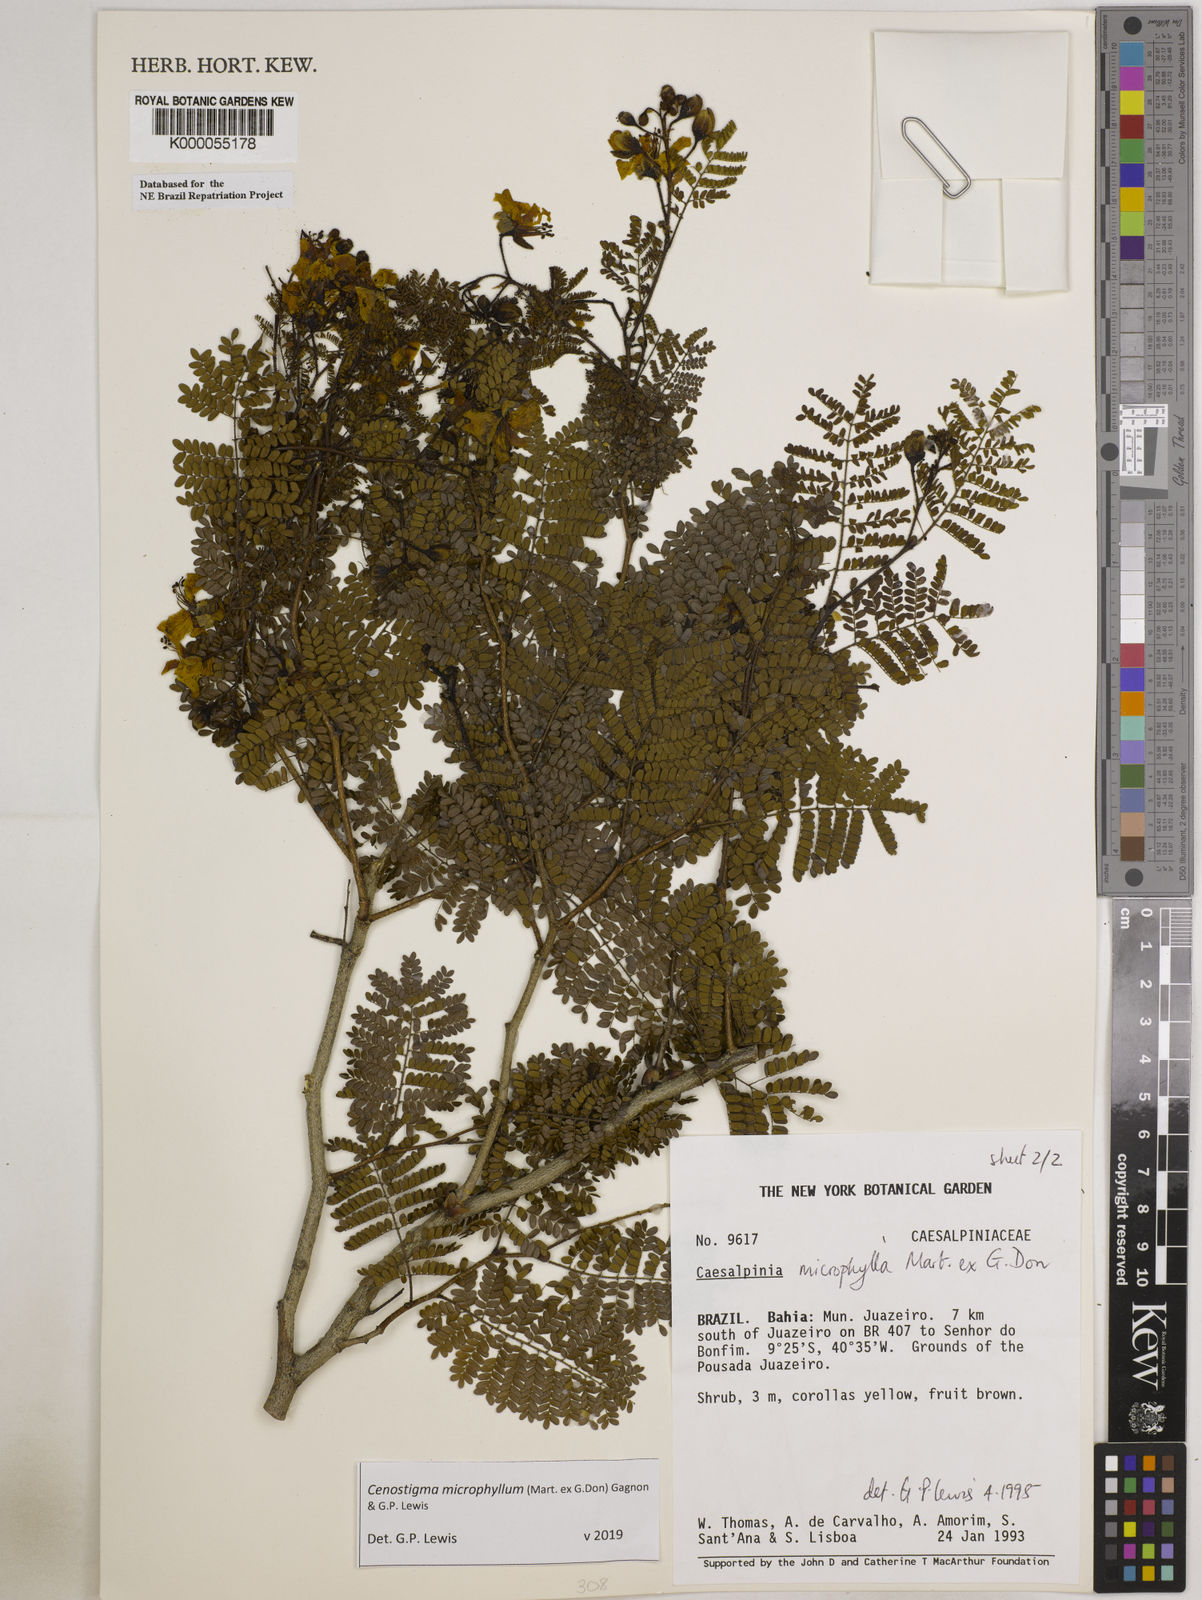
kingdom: Plantae
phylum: Tracheophyta
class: Magnoliopsida
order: Fabales
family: Fabaceae
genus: Cenostigma
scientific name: Cenostigma microphyllum
